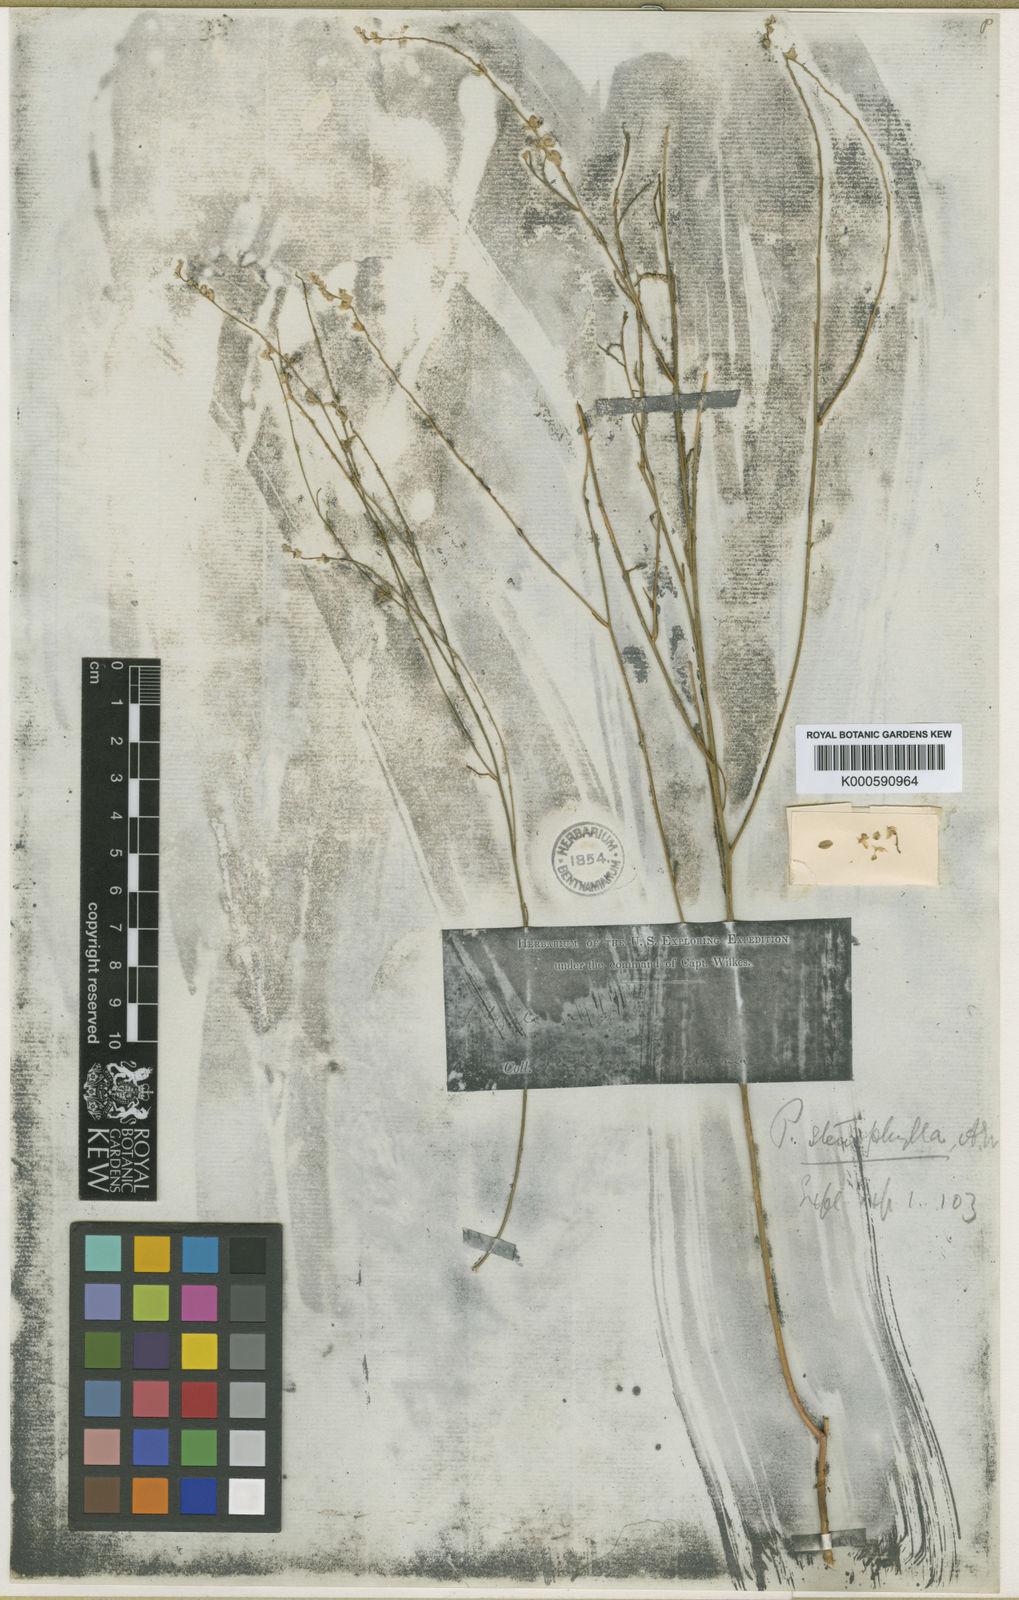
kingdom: Plantae
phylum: Tracheophyta
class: Magnoliopsida
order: Fabales
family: Polygalaceae
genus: Polygala
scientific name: Polygala stenophylla
